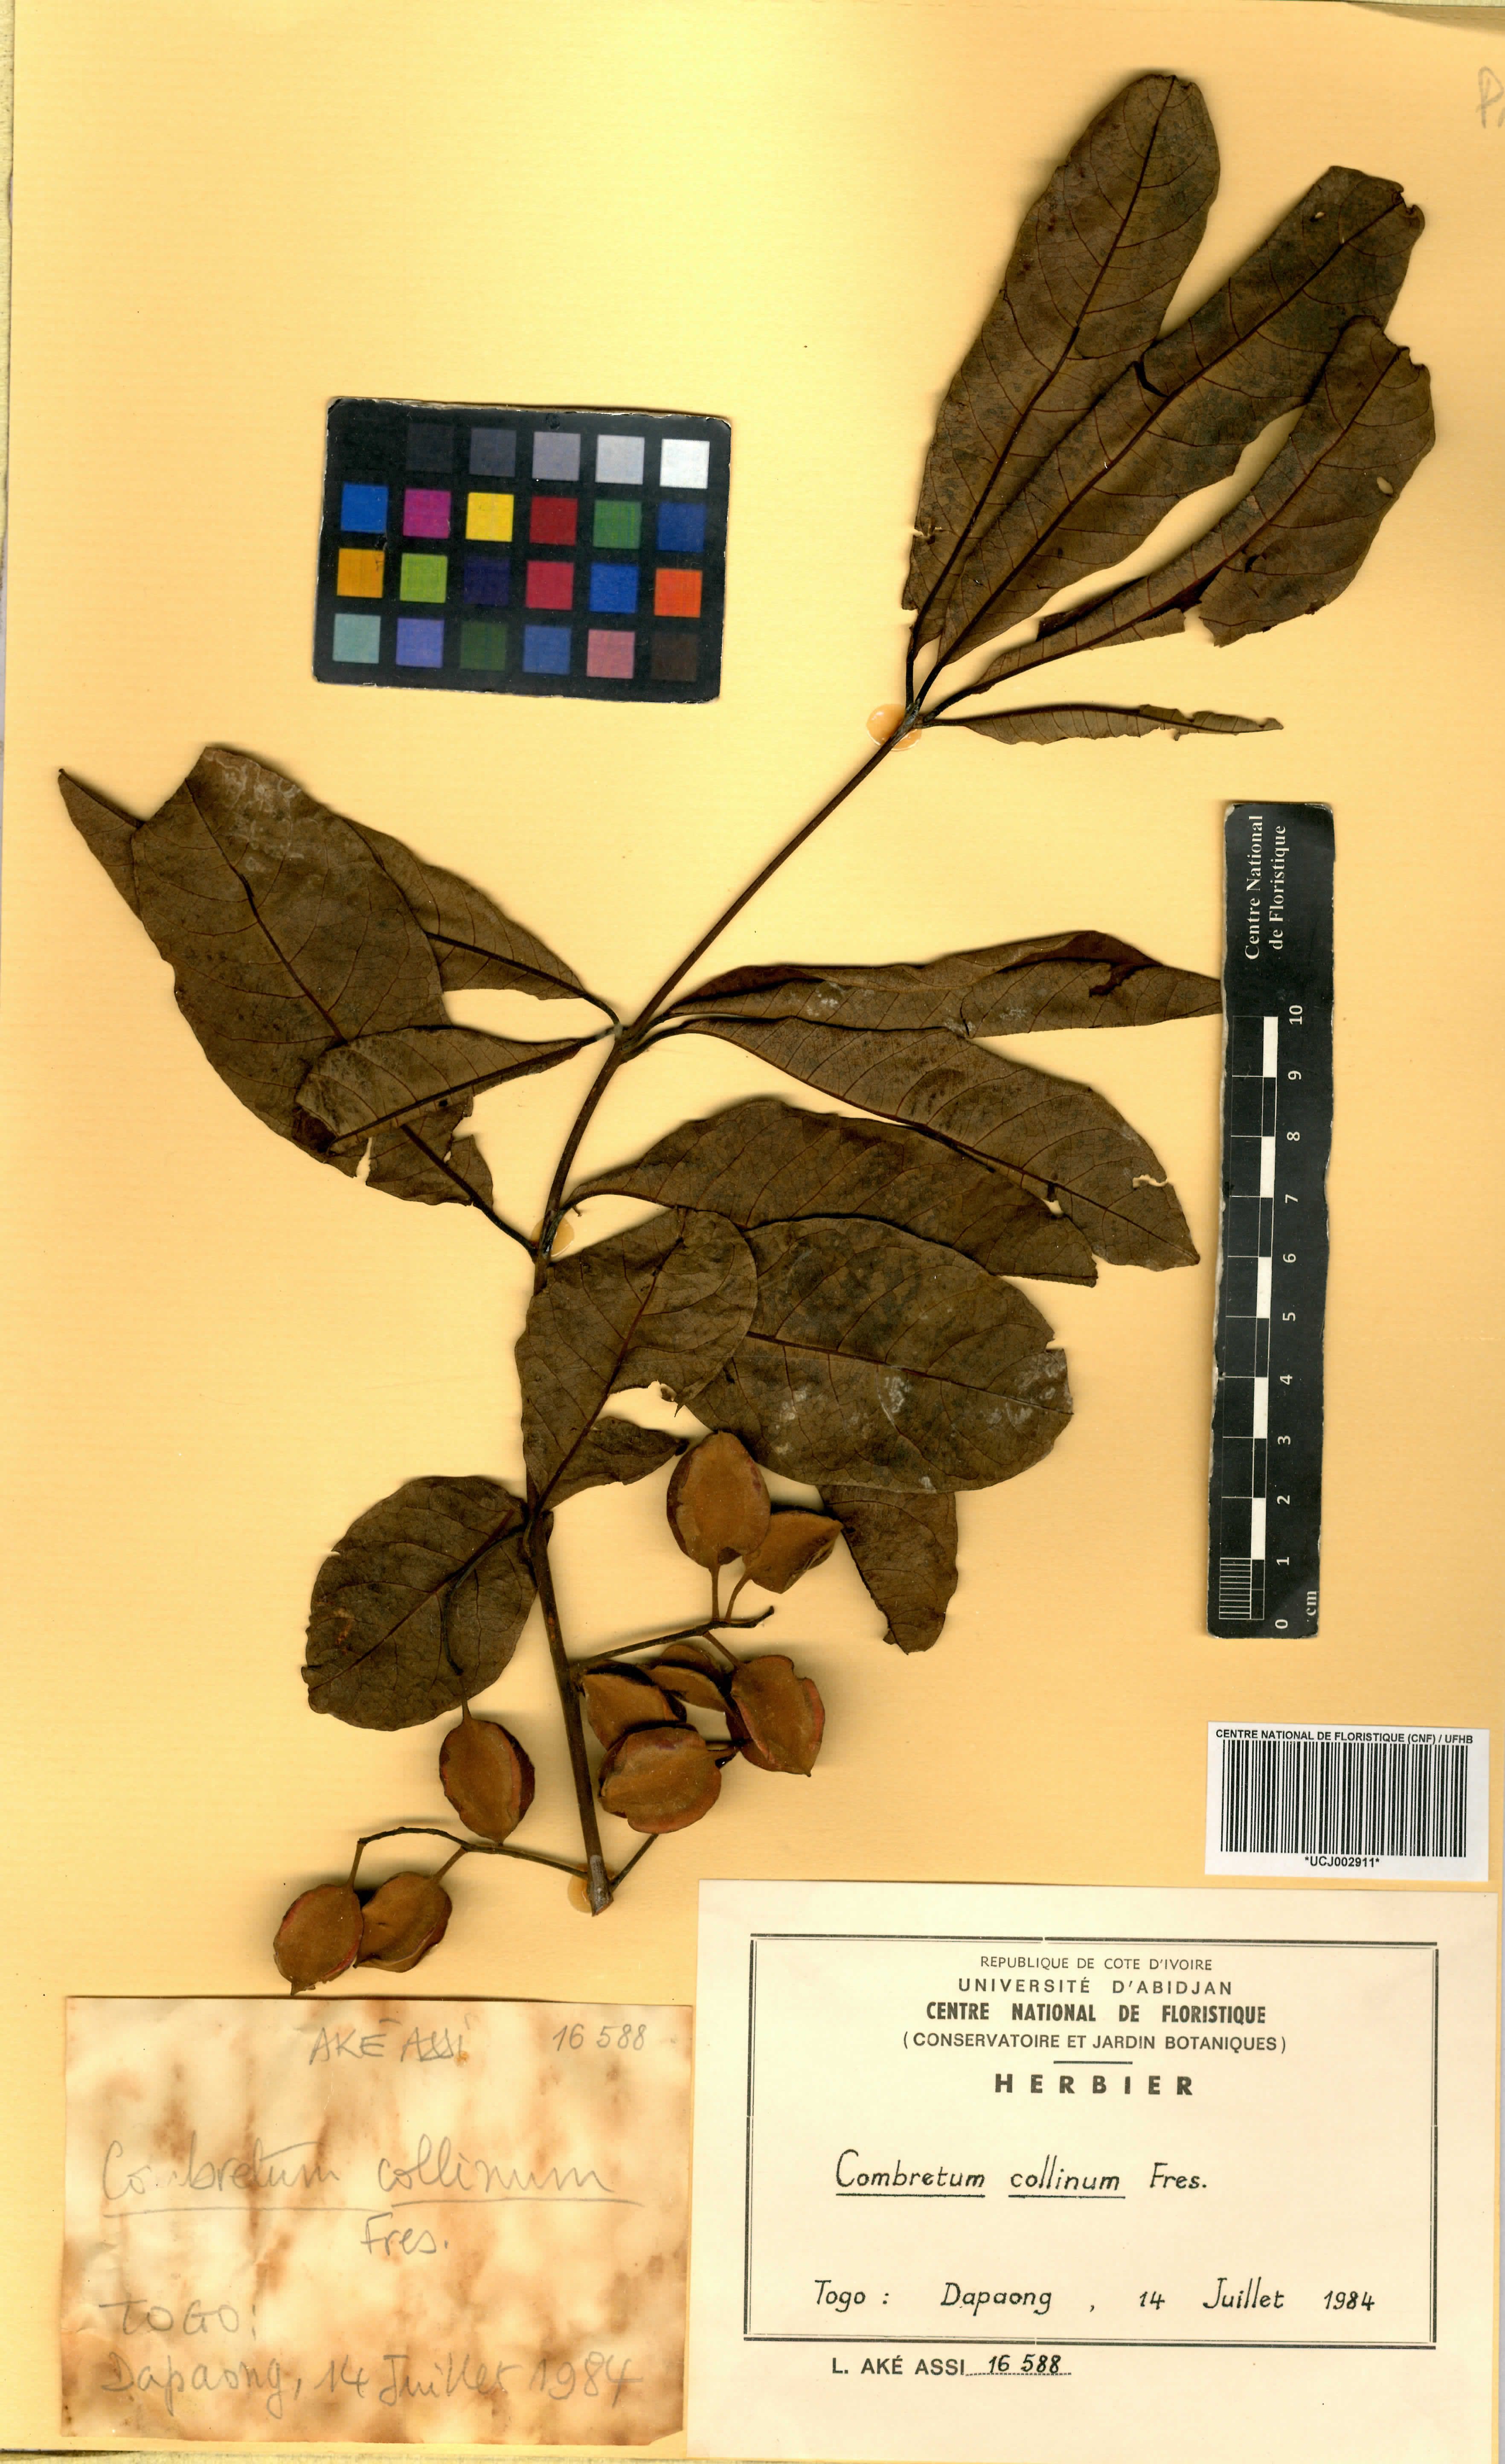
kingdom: Plantae
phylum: Tracheophyta
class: Magnoliopsida
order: Myrtales
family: Combretaceae
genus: Combretum
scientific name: Combretum collinum
